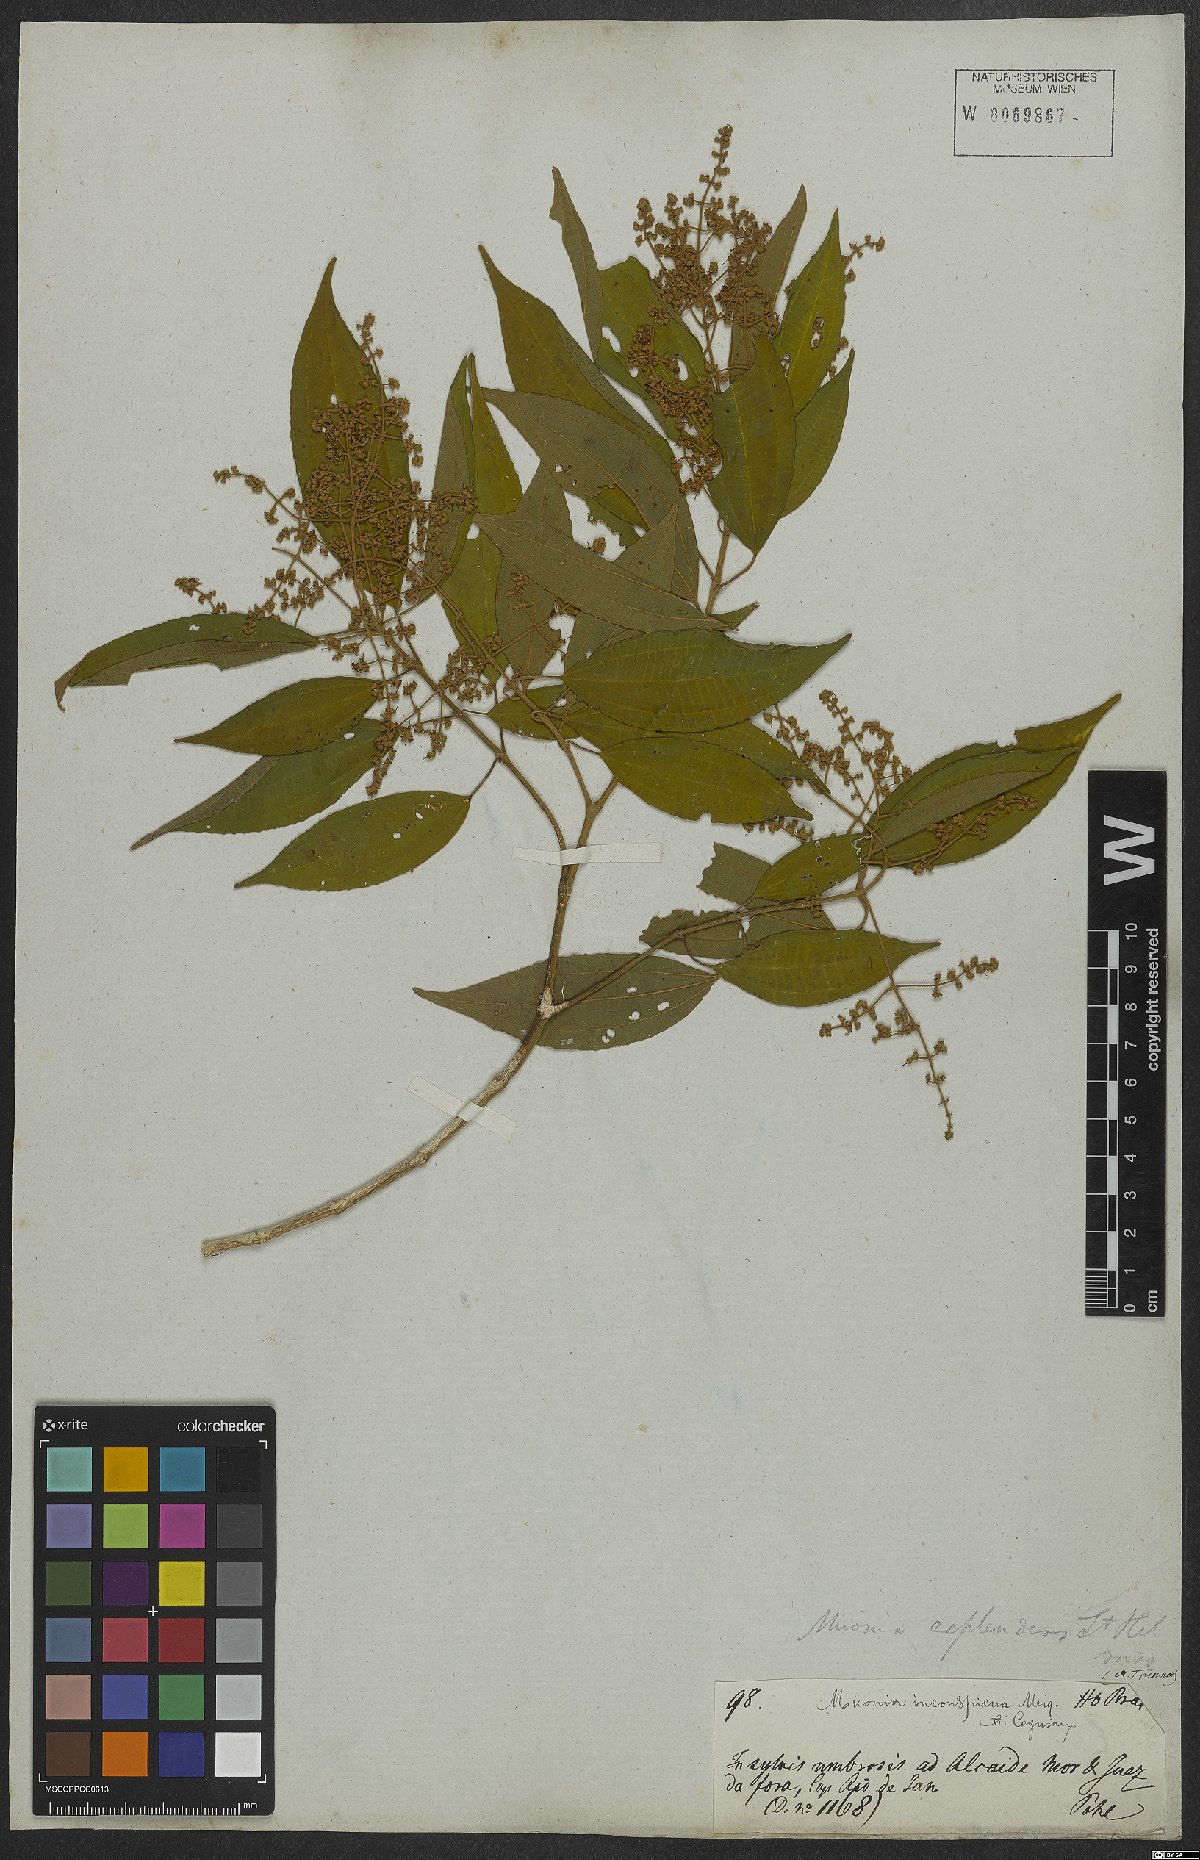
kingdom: Plantae
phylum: Tracheophyta
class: Magnoliopsida
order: Myrtales
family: Melastomataceae
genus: Miconia
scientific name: Miconia inconspicua
